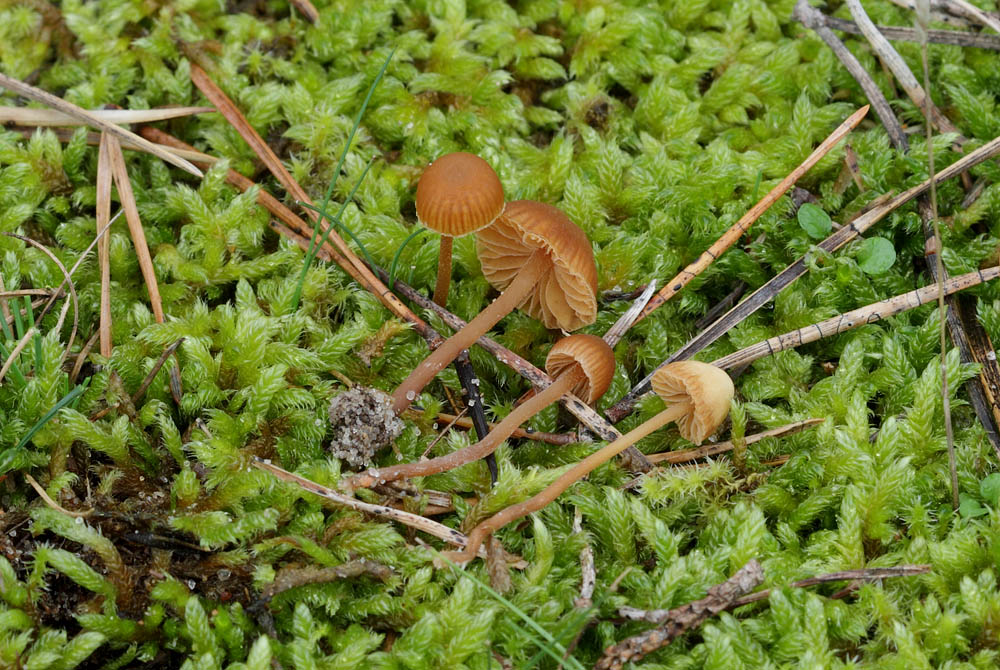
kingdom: Fungi
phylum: Basidiomycota
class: Agaricomycetes
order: Agaricales
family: Hymenogastraceae
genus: Galerina
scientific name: Galerina vittiformis
